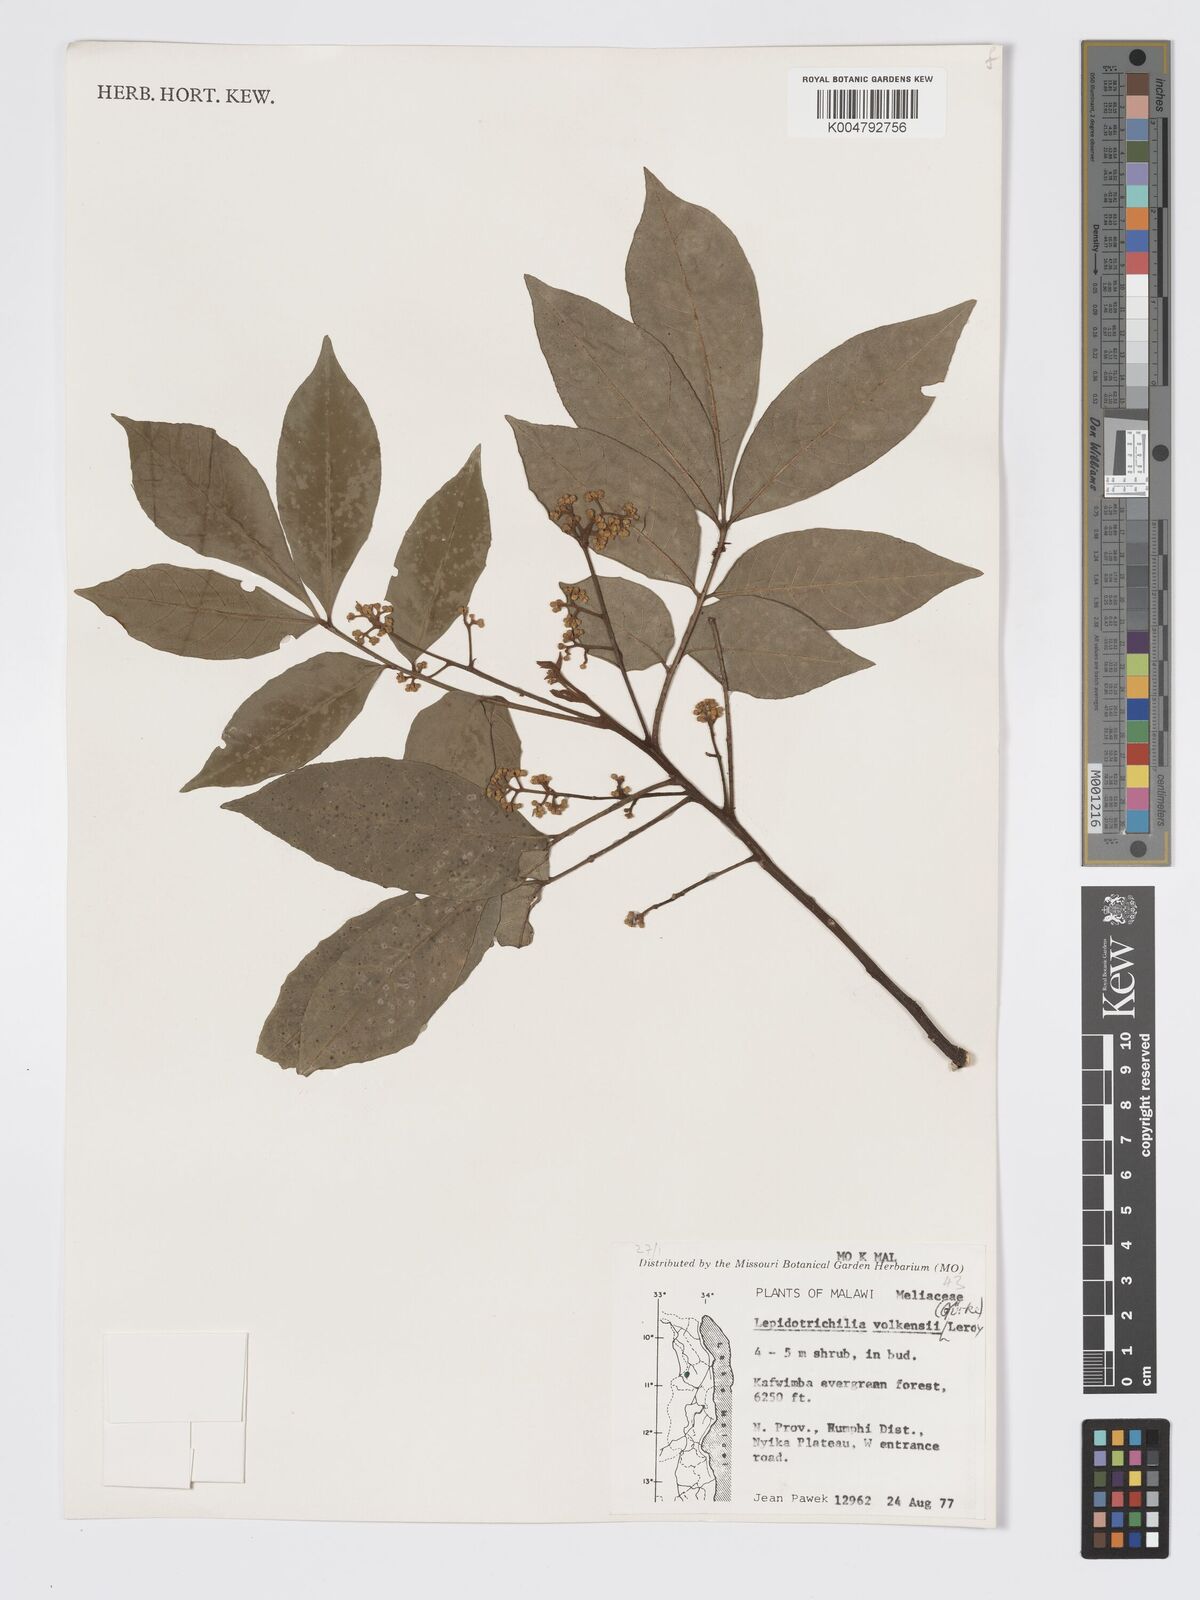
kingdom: Plantae
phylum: Tracheophyta
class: Magnoliopsida
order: Sapindales
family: Meliaceae
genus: Lepidotrichilia
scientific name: Lepidotrichilia volkensii
